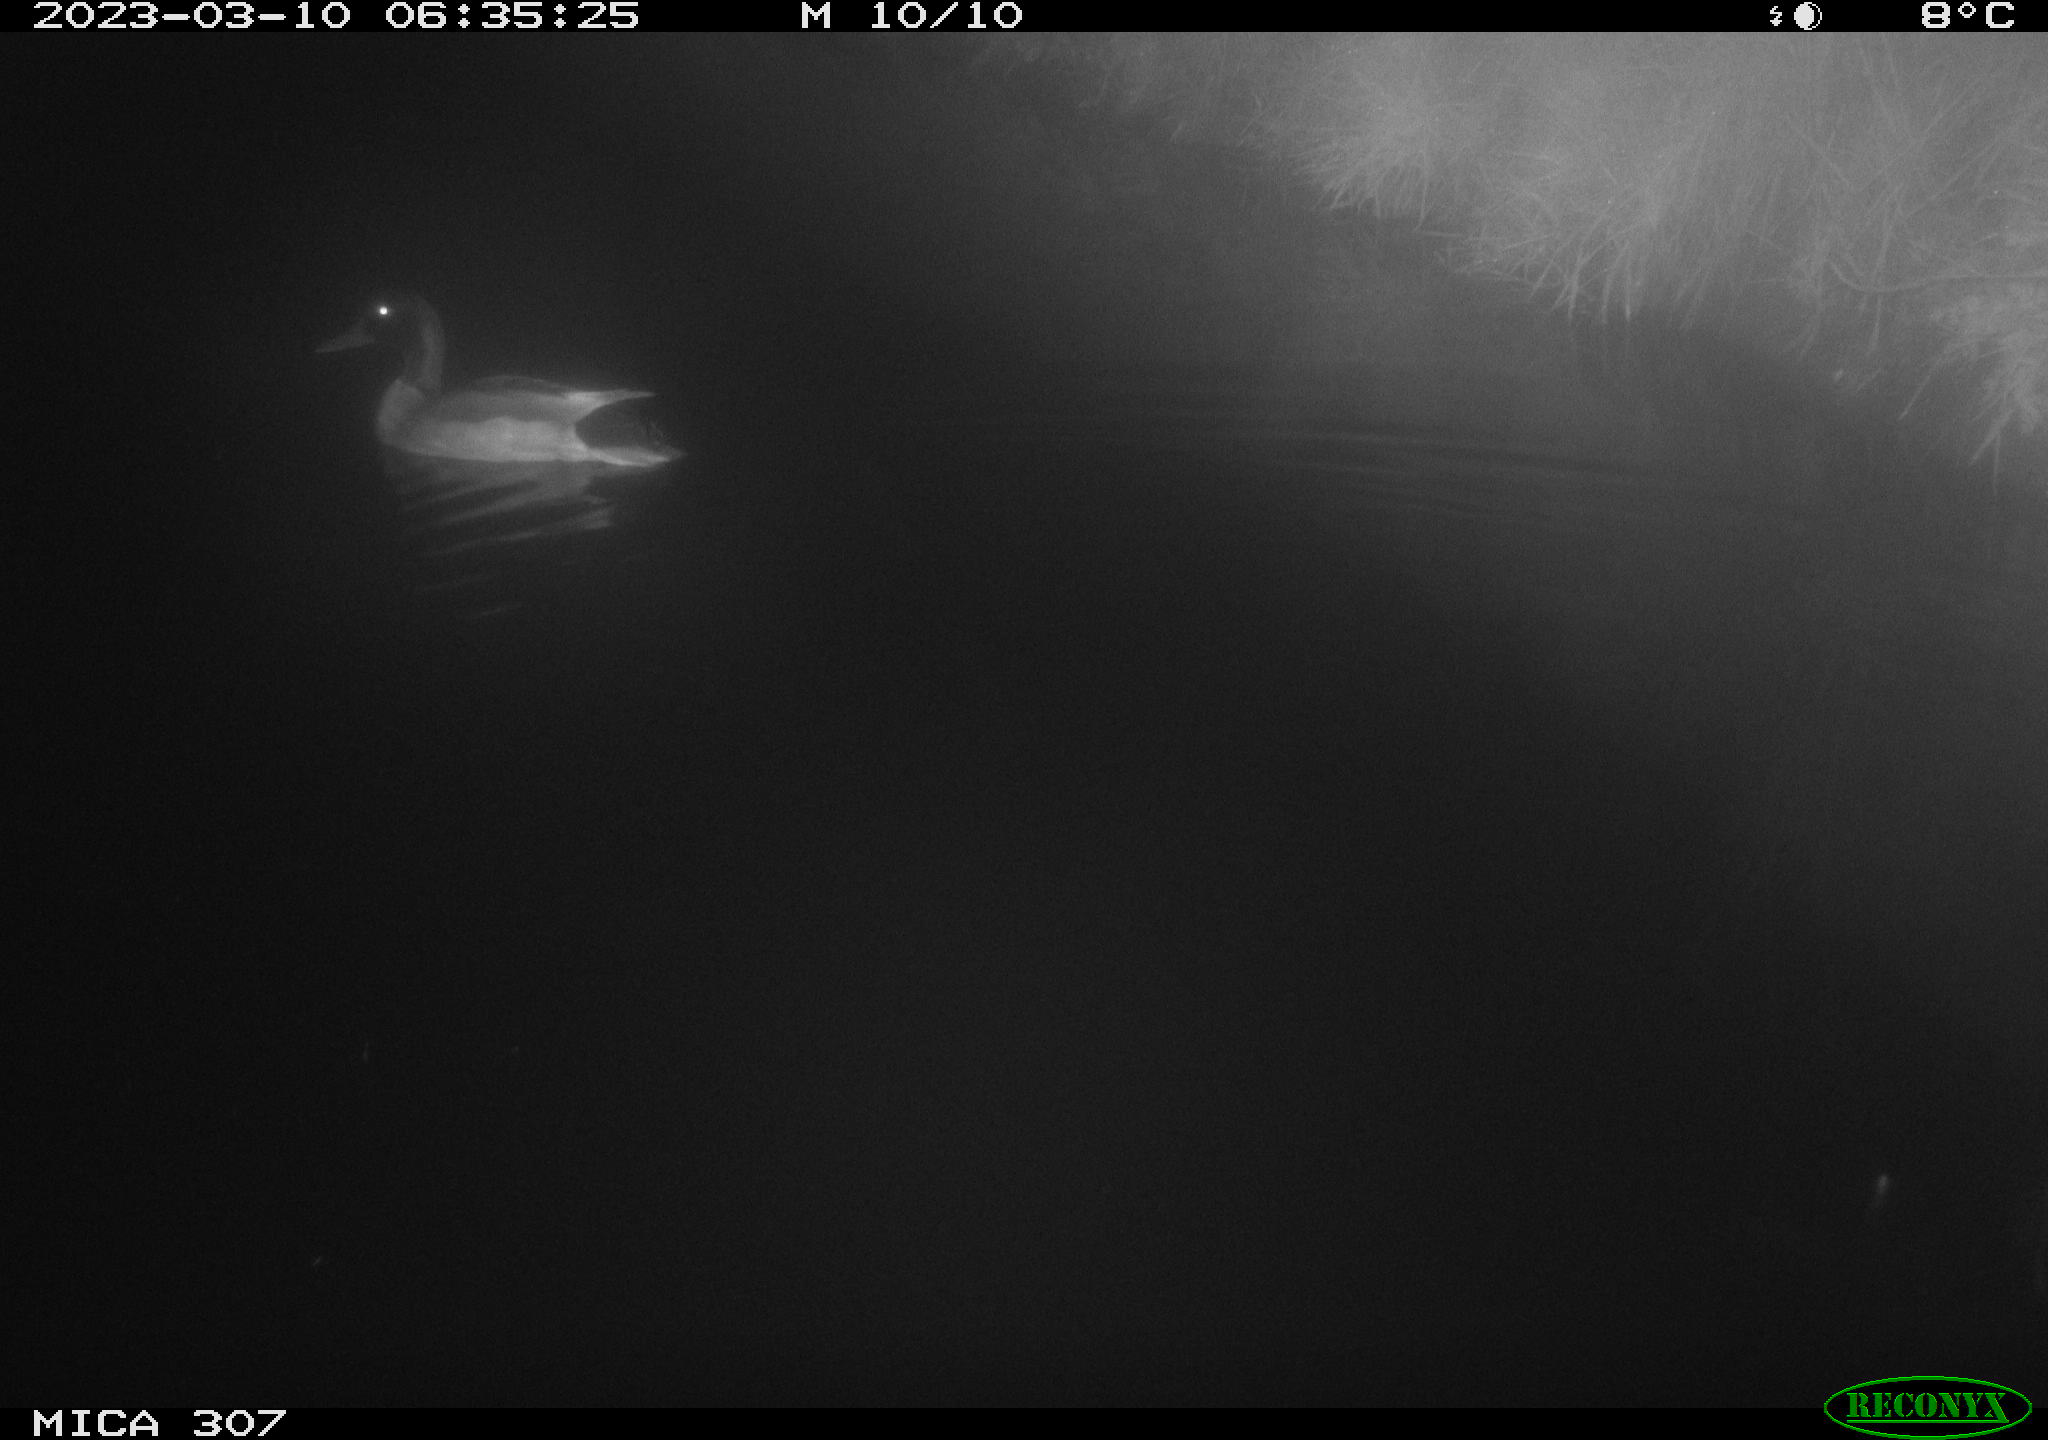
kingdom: Animalia
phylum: Chordata
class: Aves
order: Anseriformes
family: Anatidae
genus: Anas
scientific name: Anas
